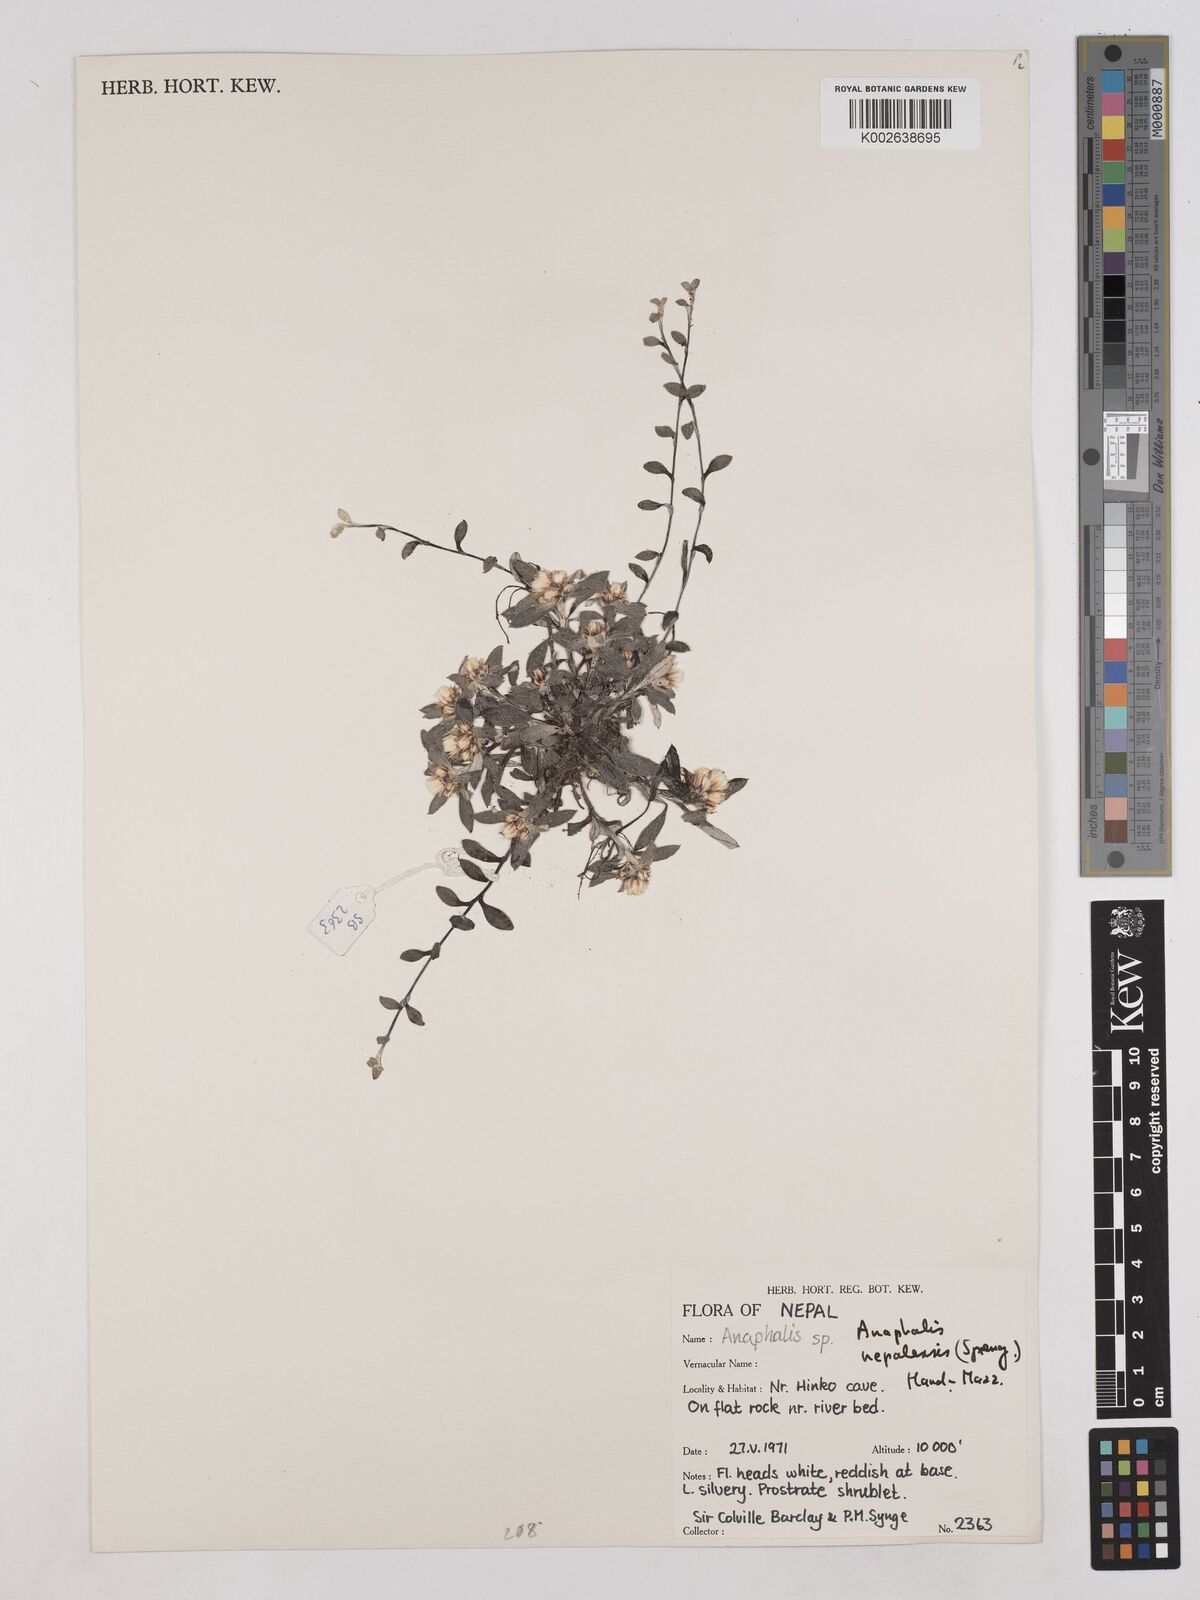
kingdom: Plantae
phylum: Tracheophyta
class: Magnoliopsida
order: Asterales
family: Asteraceae
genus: Anaphalioides
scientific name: Anaphalioides trinervis
